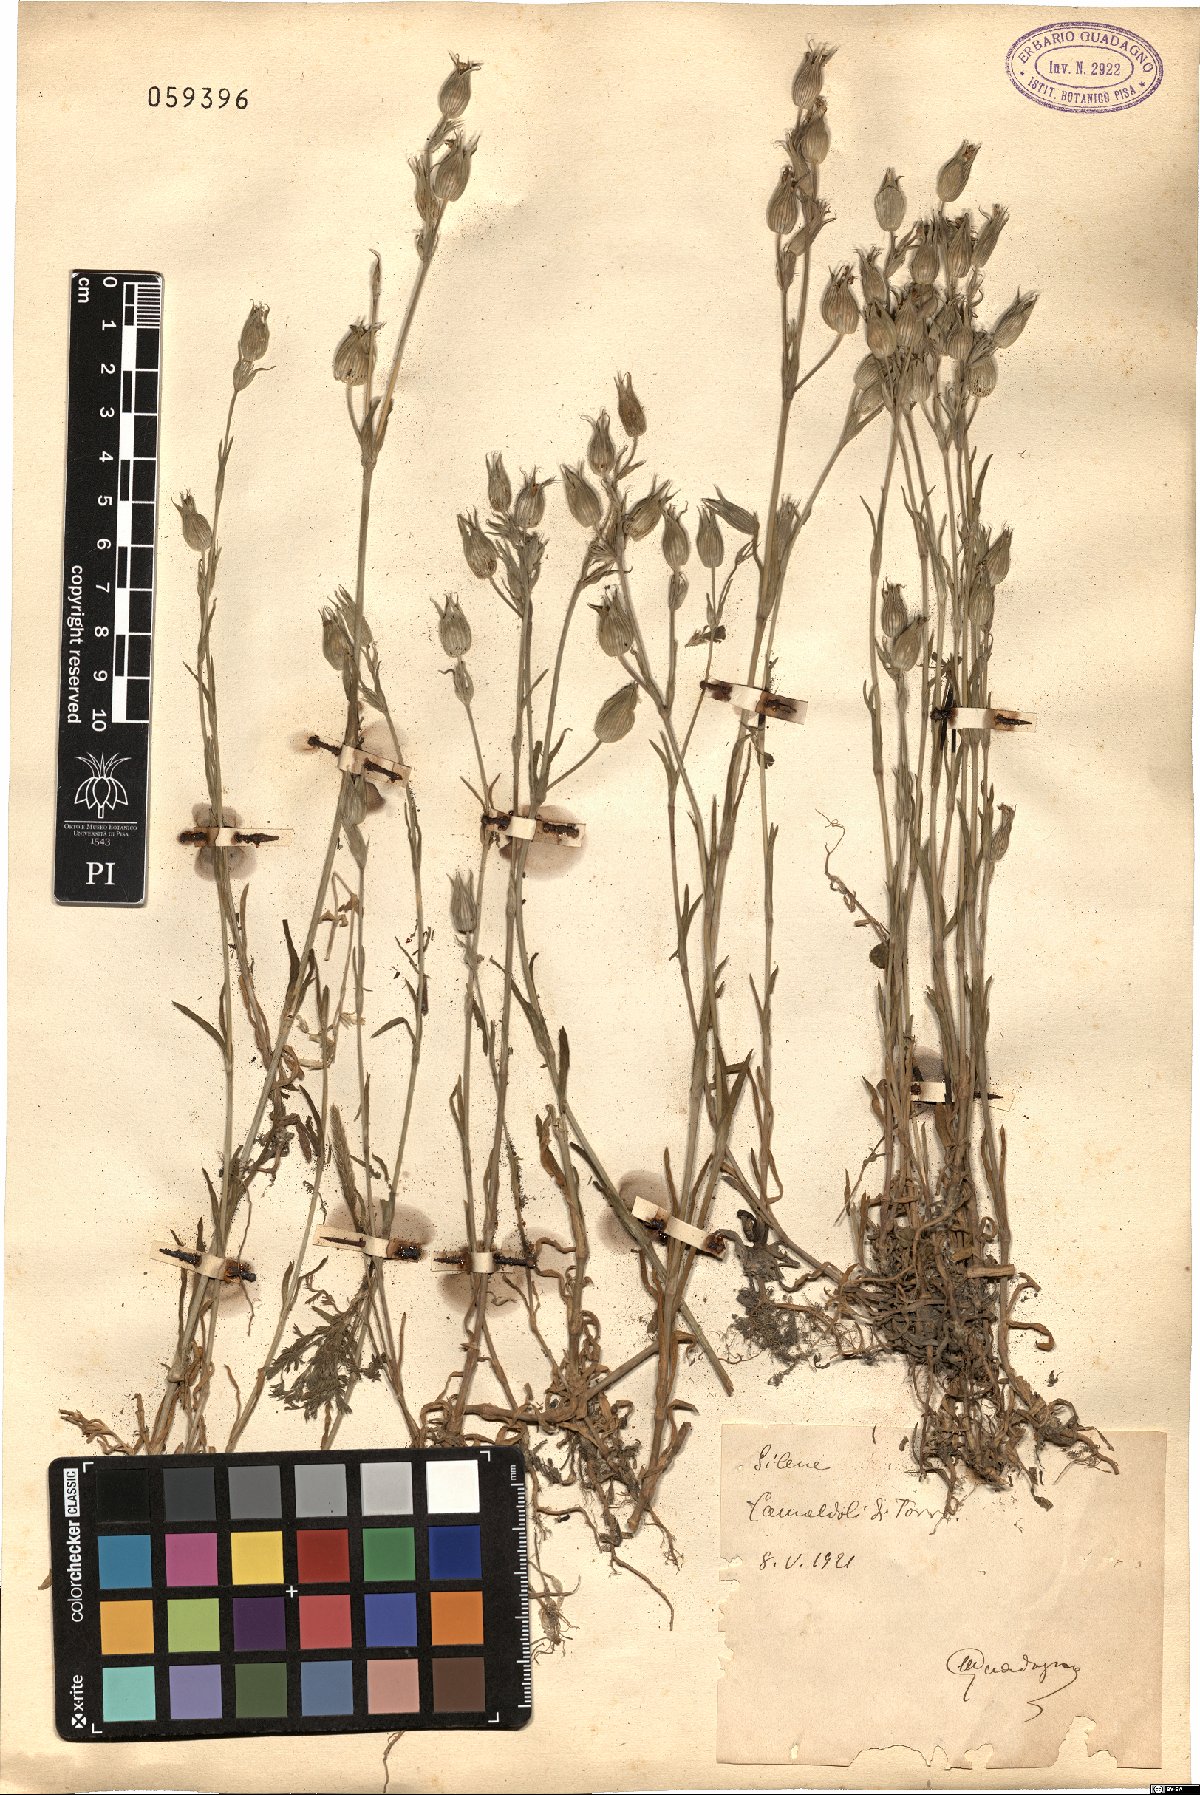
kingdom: Plantae
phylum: Tracheophyta
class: Magnoliopsida
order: Caryophyllales
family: Caryophyllaceae
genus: Silene
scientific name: Silene
